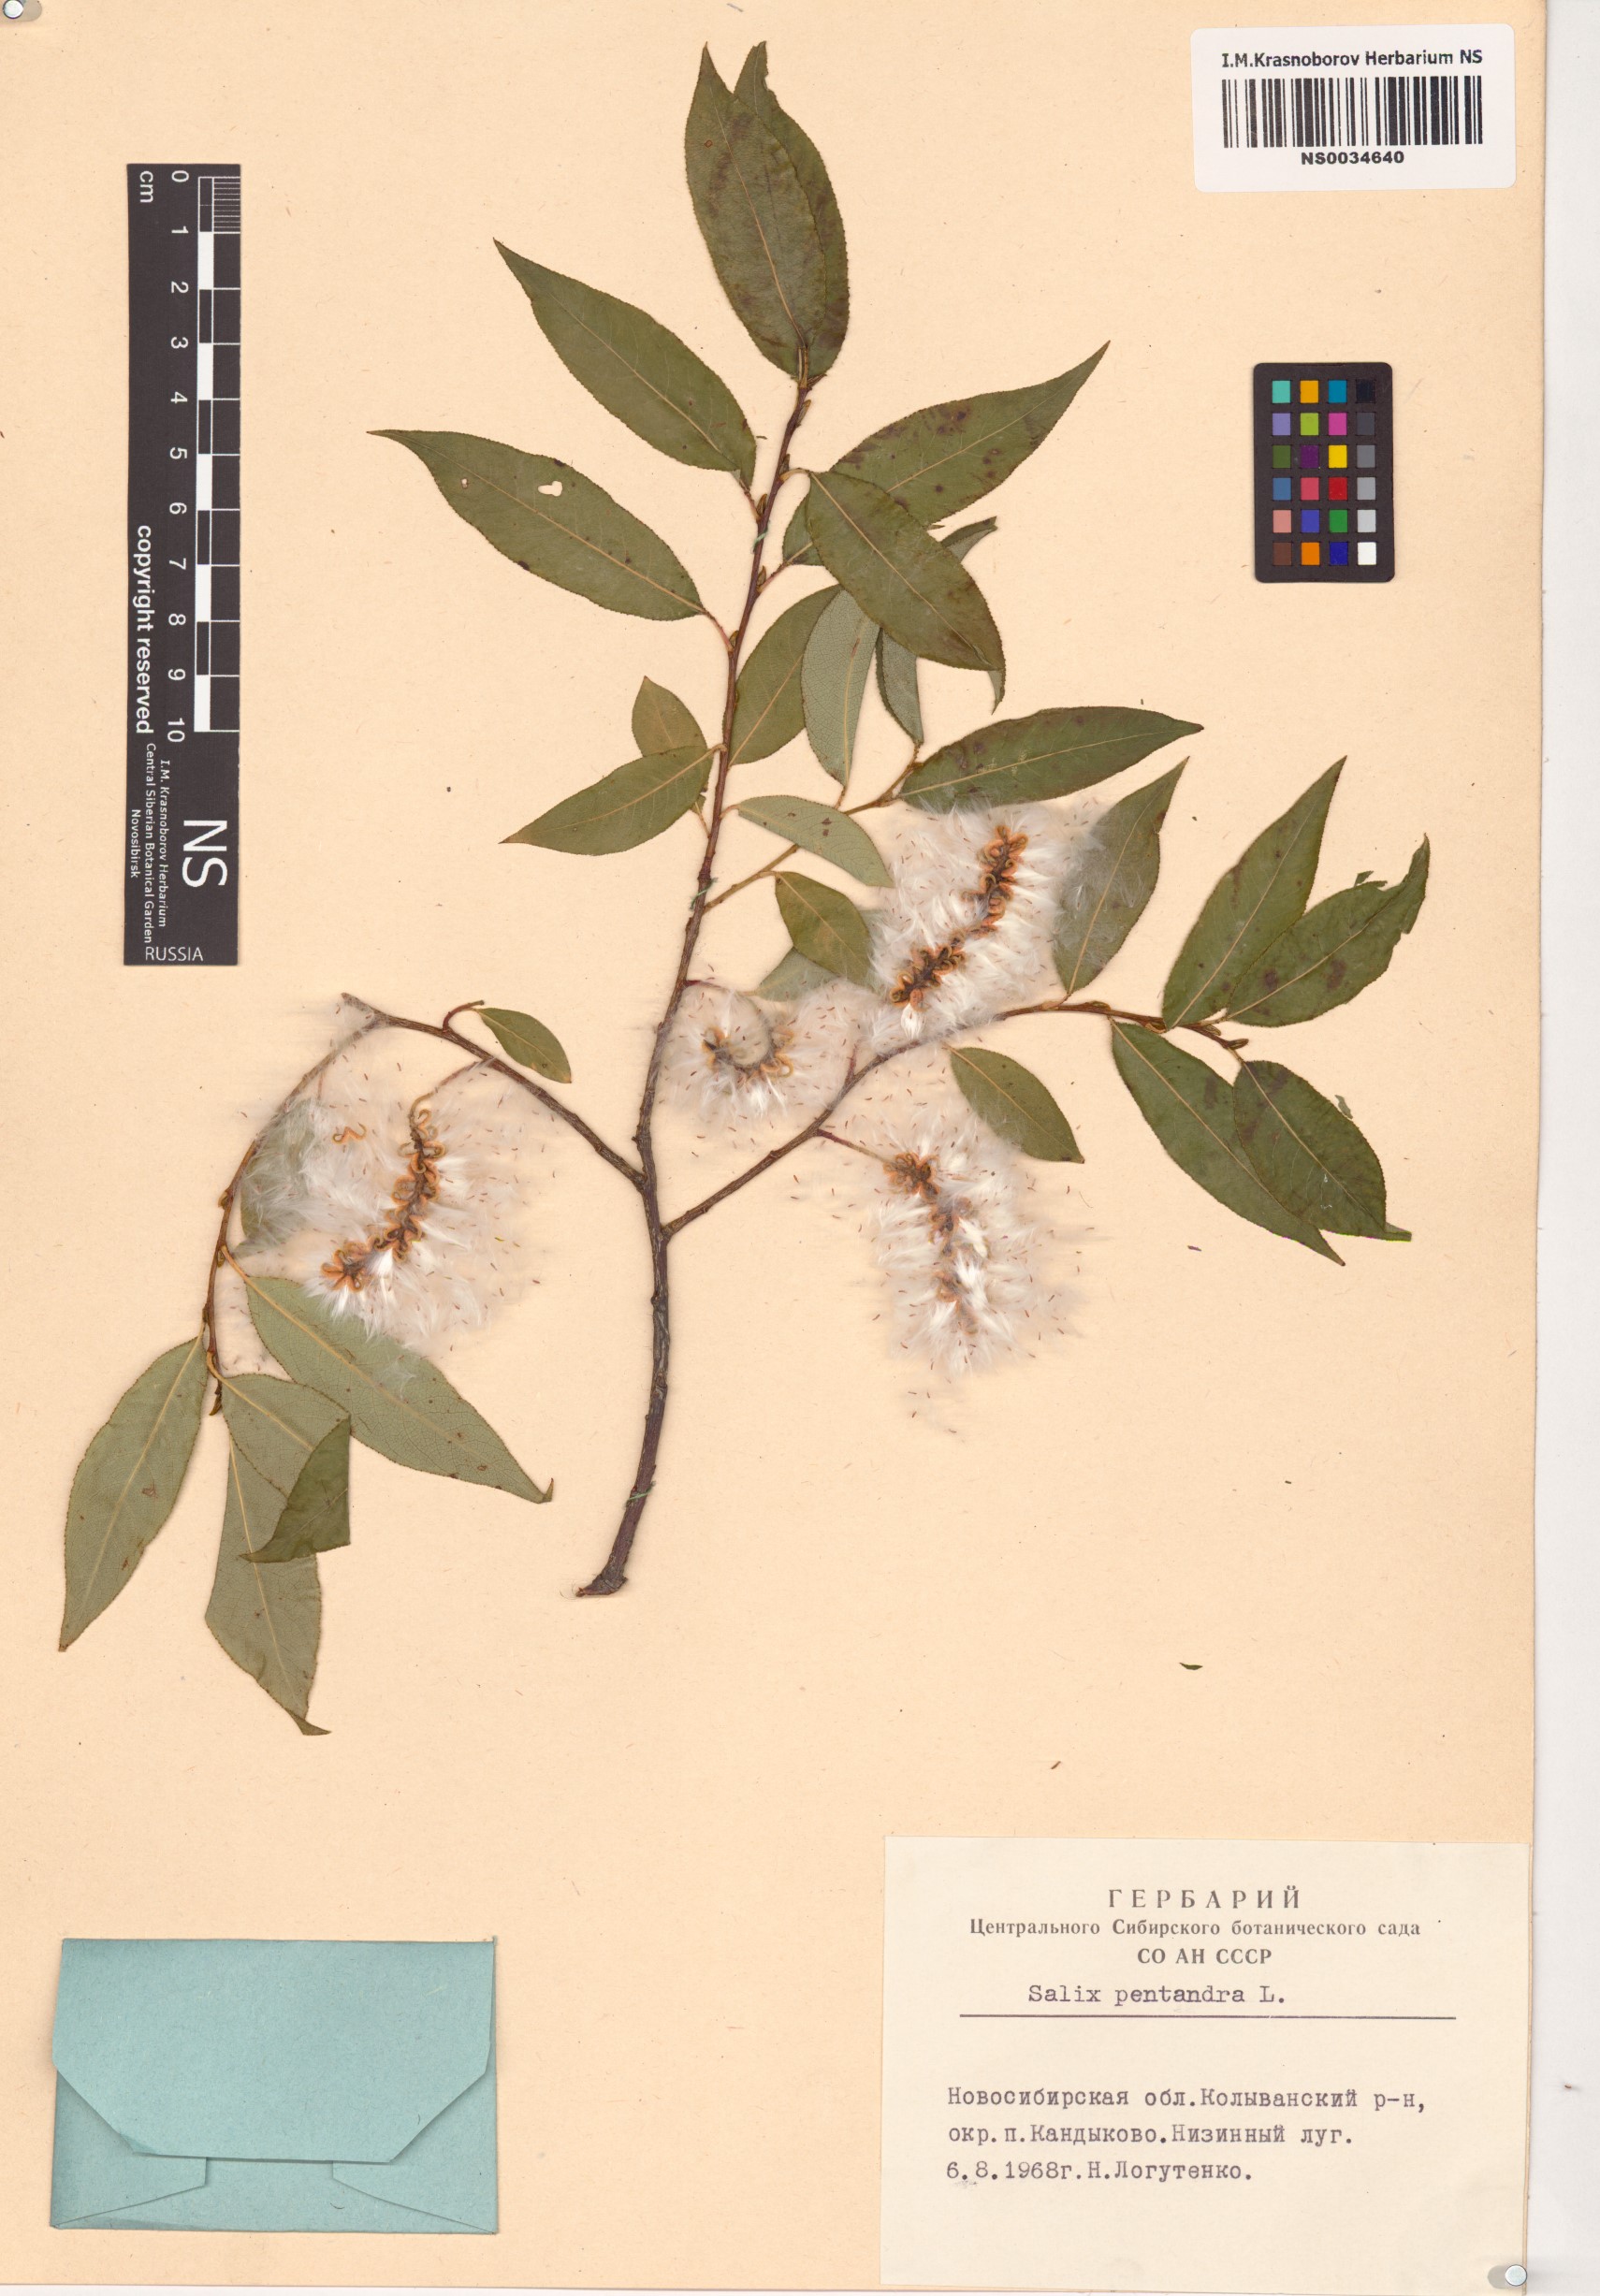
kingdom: Plantae
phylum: Tracheophyta
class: Magnoliopsida
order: Malpighiales
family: Salicaceae
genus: Salix
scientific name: Salix pentandra
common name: Bay willow
